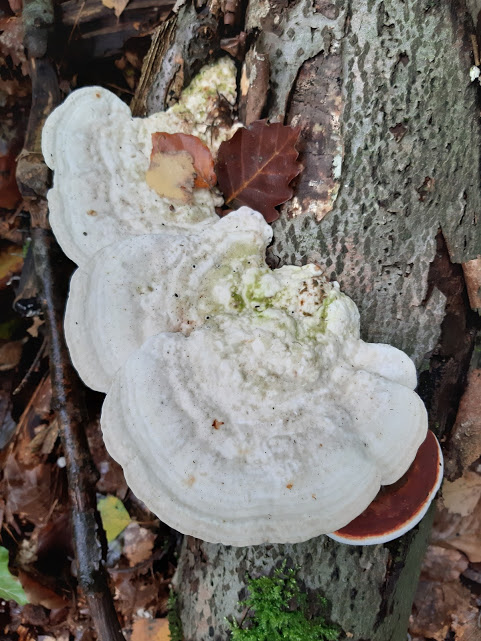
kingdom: Fungi
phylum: Basidiomycota
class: Agaricomycetes
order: Polyporales
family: Polyporaceae
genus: Trametes
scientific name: Trametes gibbosa
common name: puklet læderporesvamp
